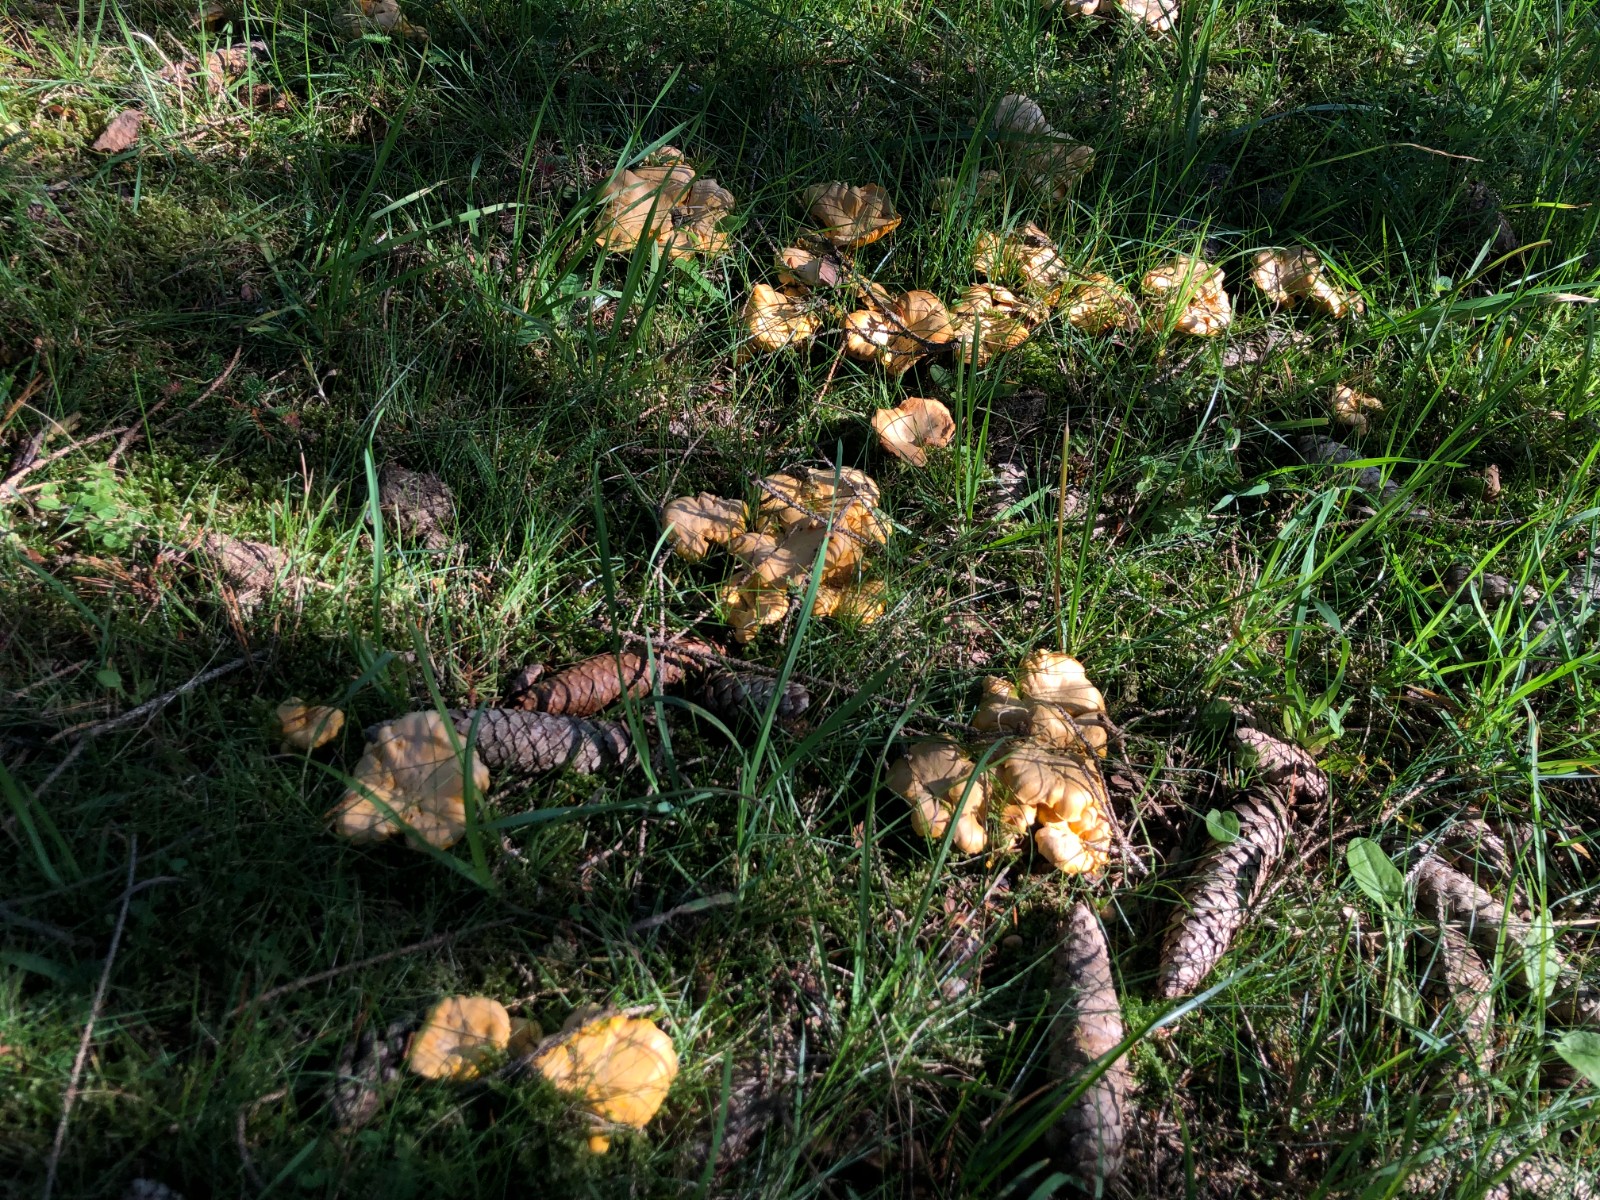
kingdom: Fungi
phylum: Basidiomycota
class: Agaricomycetes
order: Cantharellales
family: Hydnaceae
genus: Cantharellus
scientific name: Cantharellus cibarius
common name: almindelig kantarel
